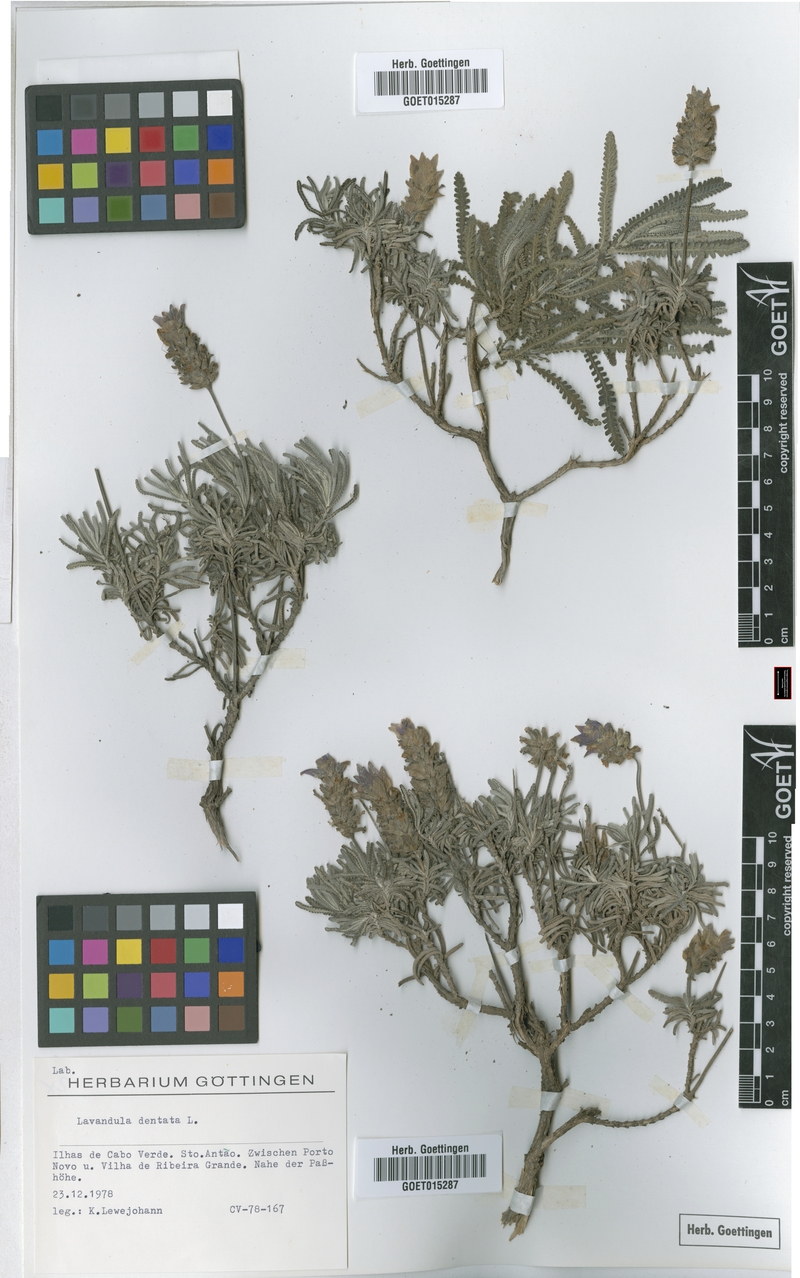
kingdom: Plantae
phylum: Tracheophyta
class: Magnoliopsida
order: Lamiales
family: Lamiaceae
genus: Lavandula
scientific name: Lavandula dentata
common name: French lavender
